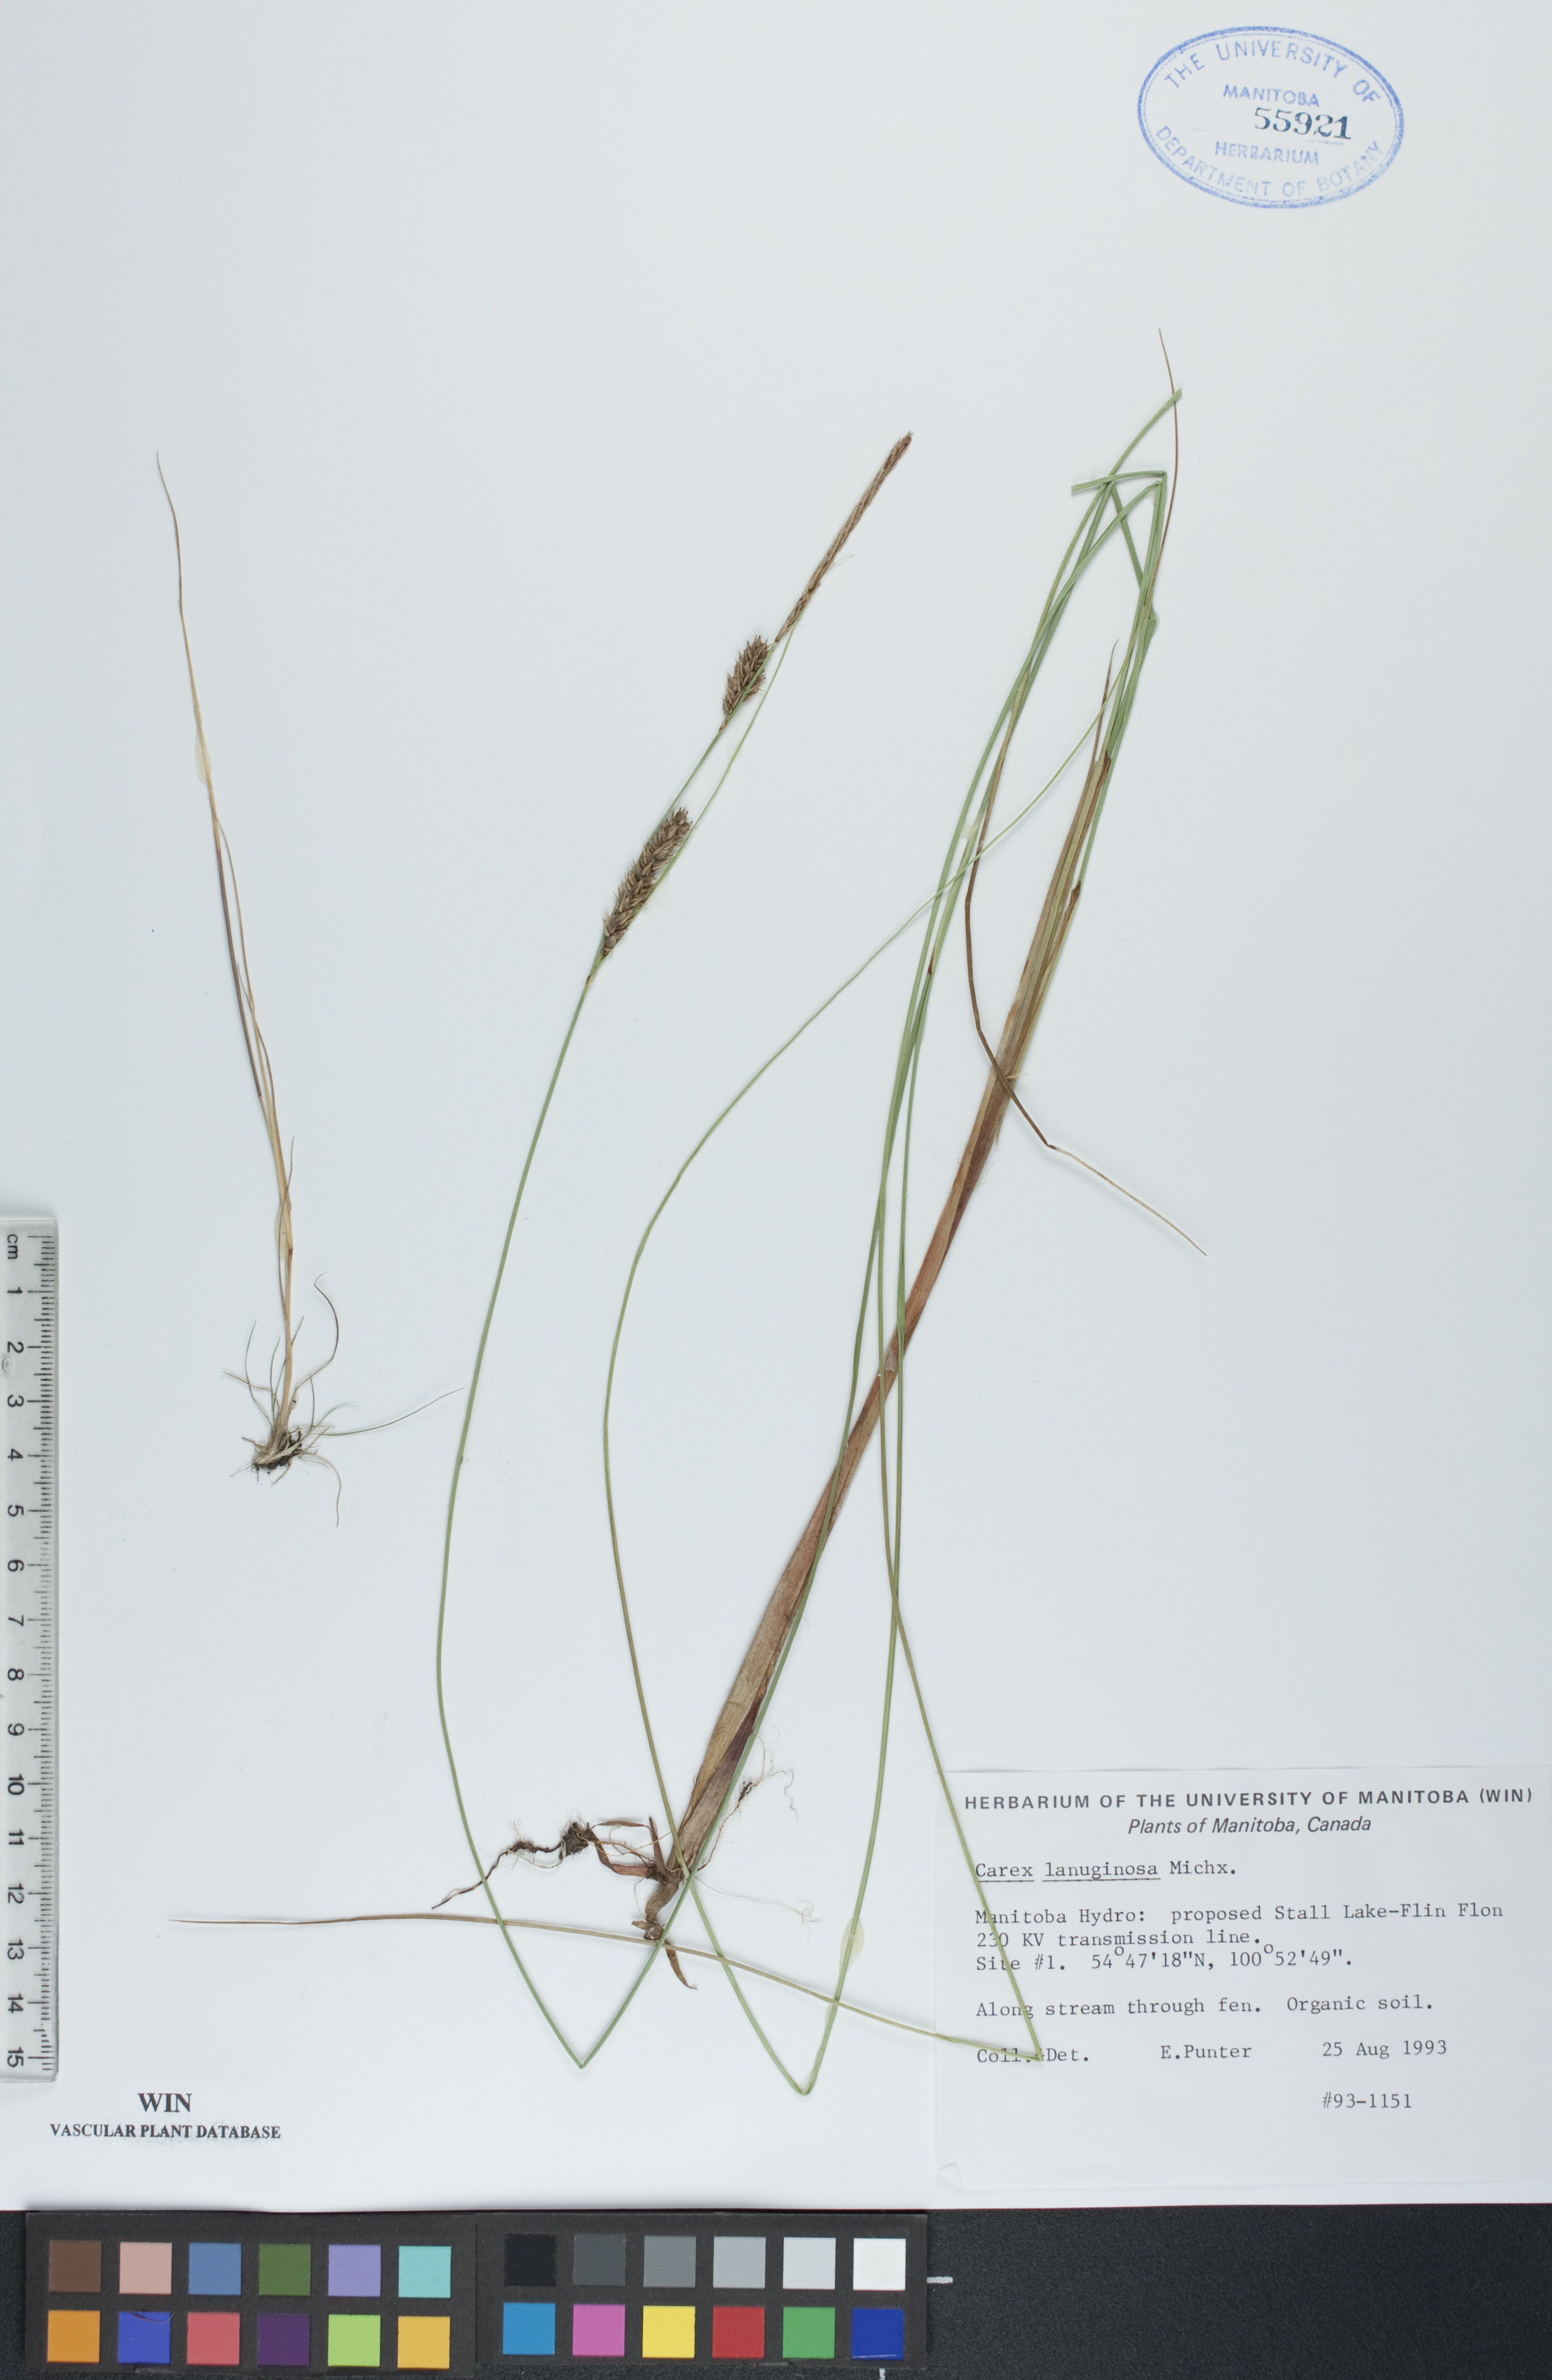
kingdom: Plantae
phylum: Tracheophyta
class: Liliopsida
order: Poales
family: Cyperaceae
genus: Carex
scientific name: Carex lasiocarpa
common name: Slender sedge
